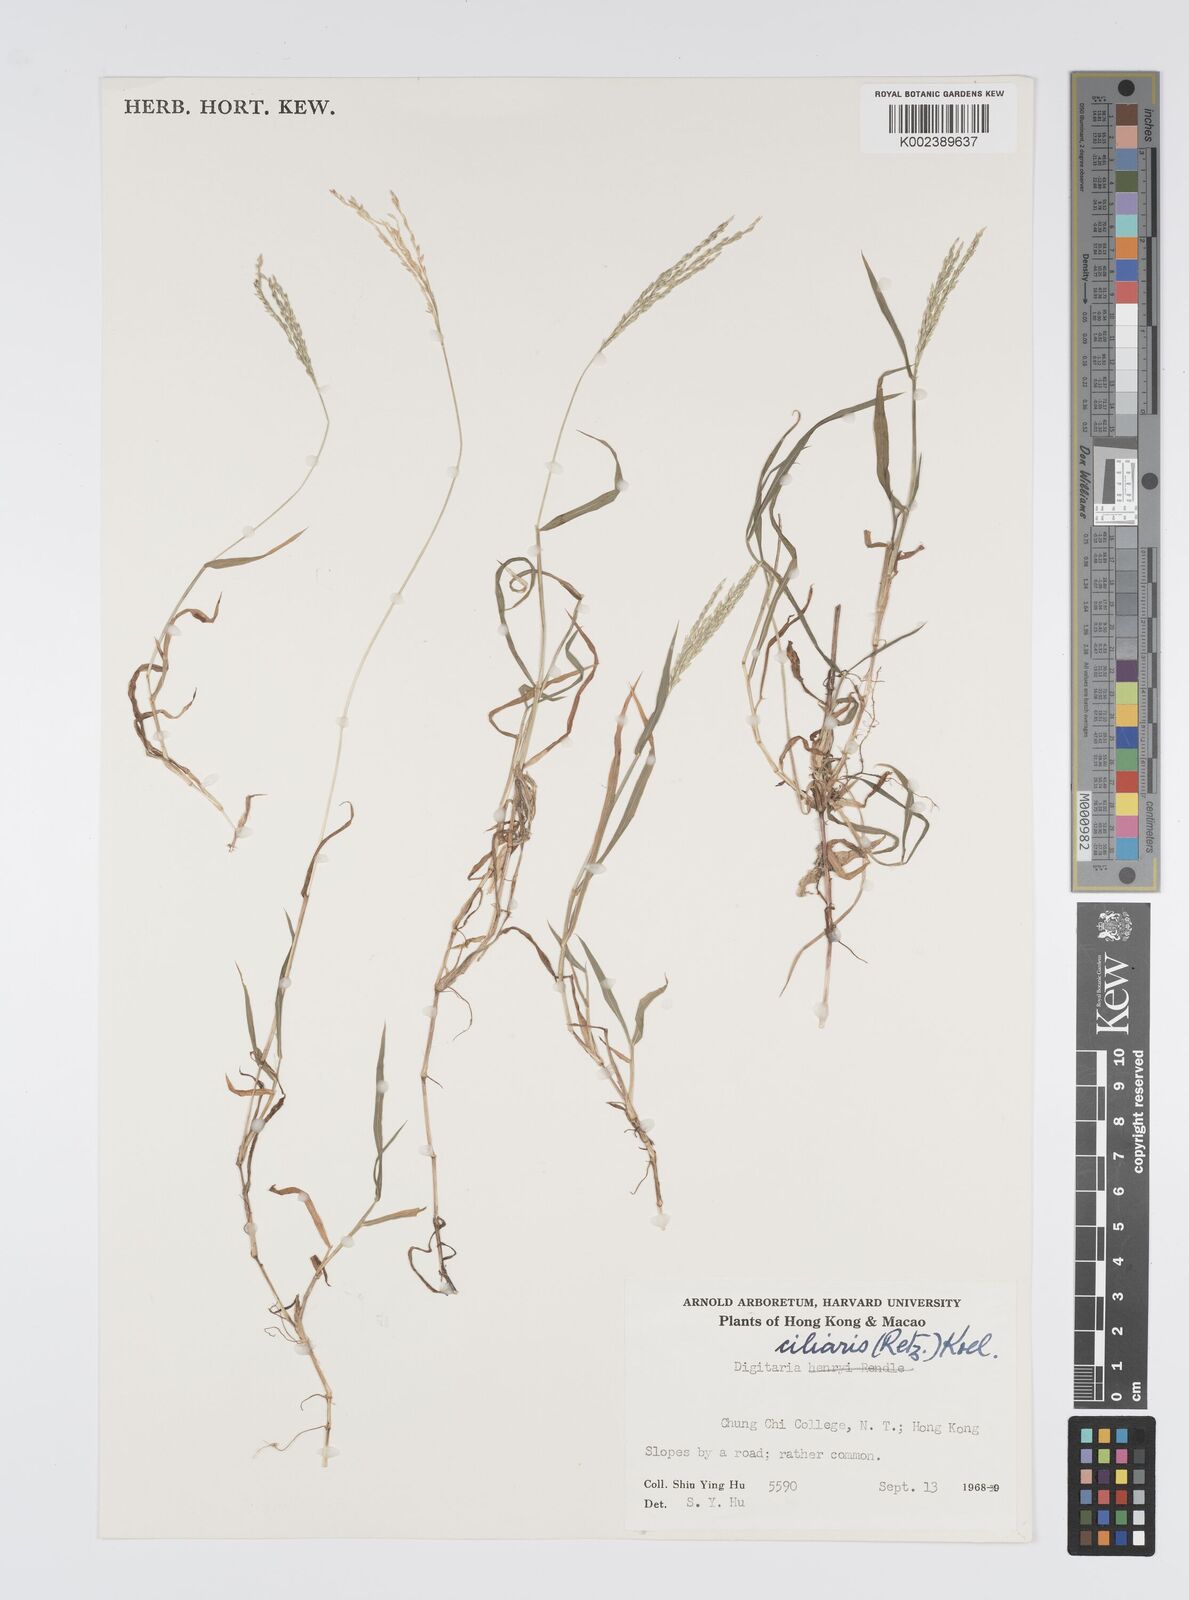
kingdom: Plantae
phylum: Tracheophyta
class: Liliopsida
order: Poales
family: Poaceae
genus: Digitaria
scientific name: Digitaria ciliaris
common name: Tropical finger-grass
